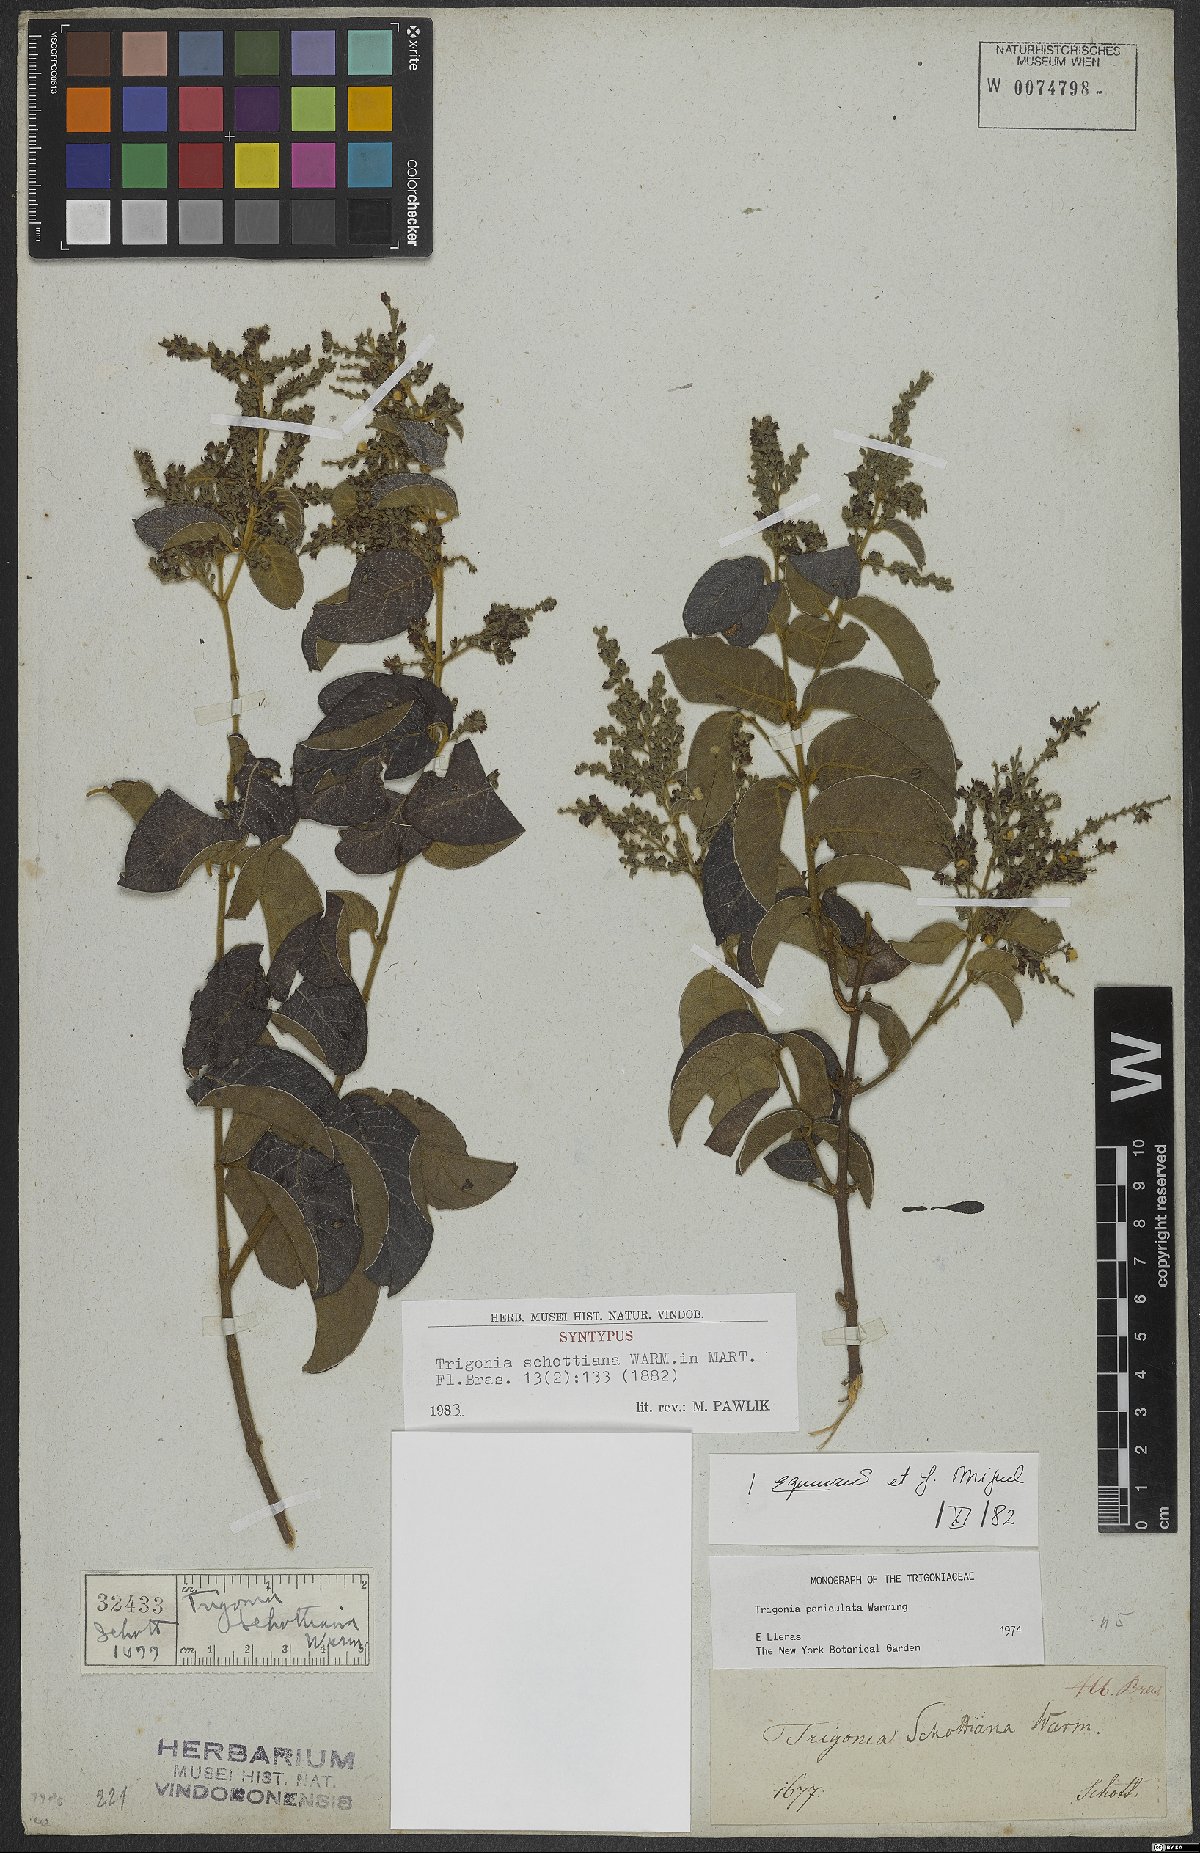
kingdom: Plantae
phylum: Tracheophyta
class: Magnoliopsida
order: Malpighiales
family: Trigoniaceae
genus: Trigonia
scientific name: Trigonia paniculata
